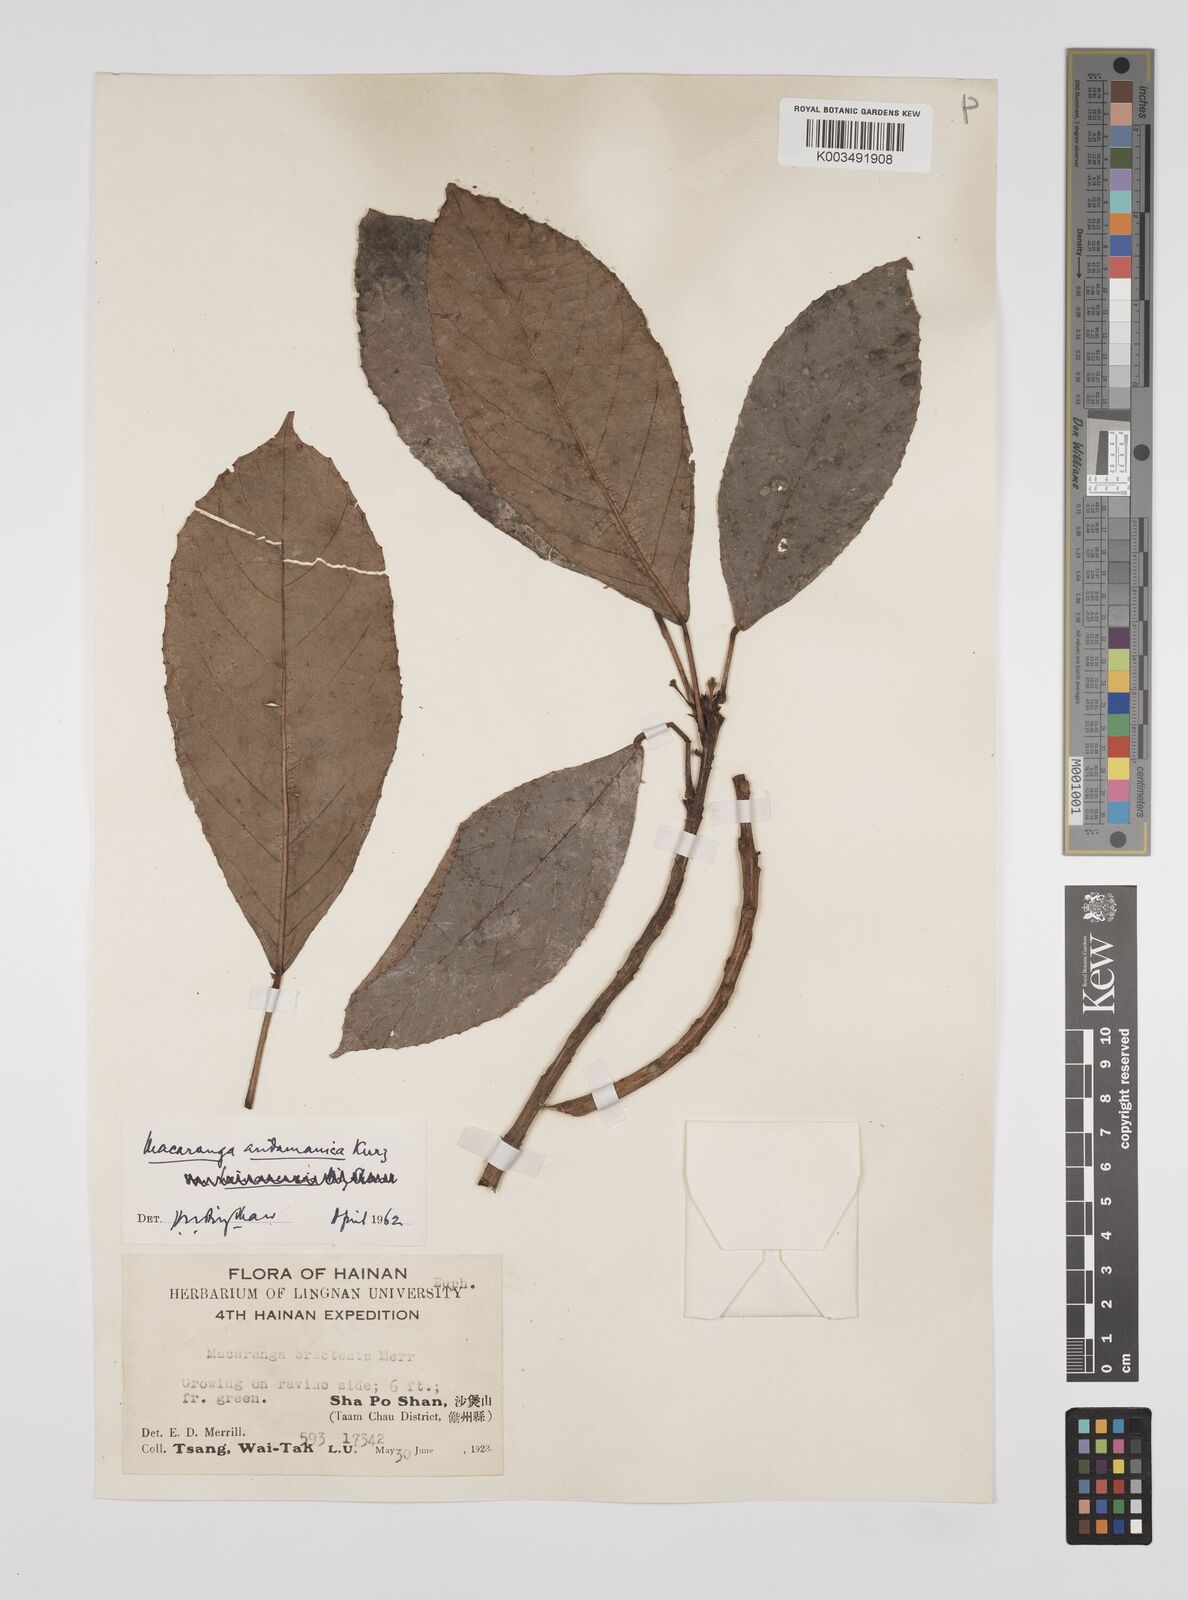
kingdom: Plantae
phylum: Tracheophyta
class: Magnoliopsida
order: Malpighiales
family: Euphorbiaceae
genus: Macaranga
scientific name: Macaranga andamanica
